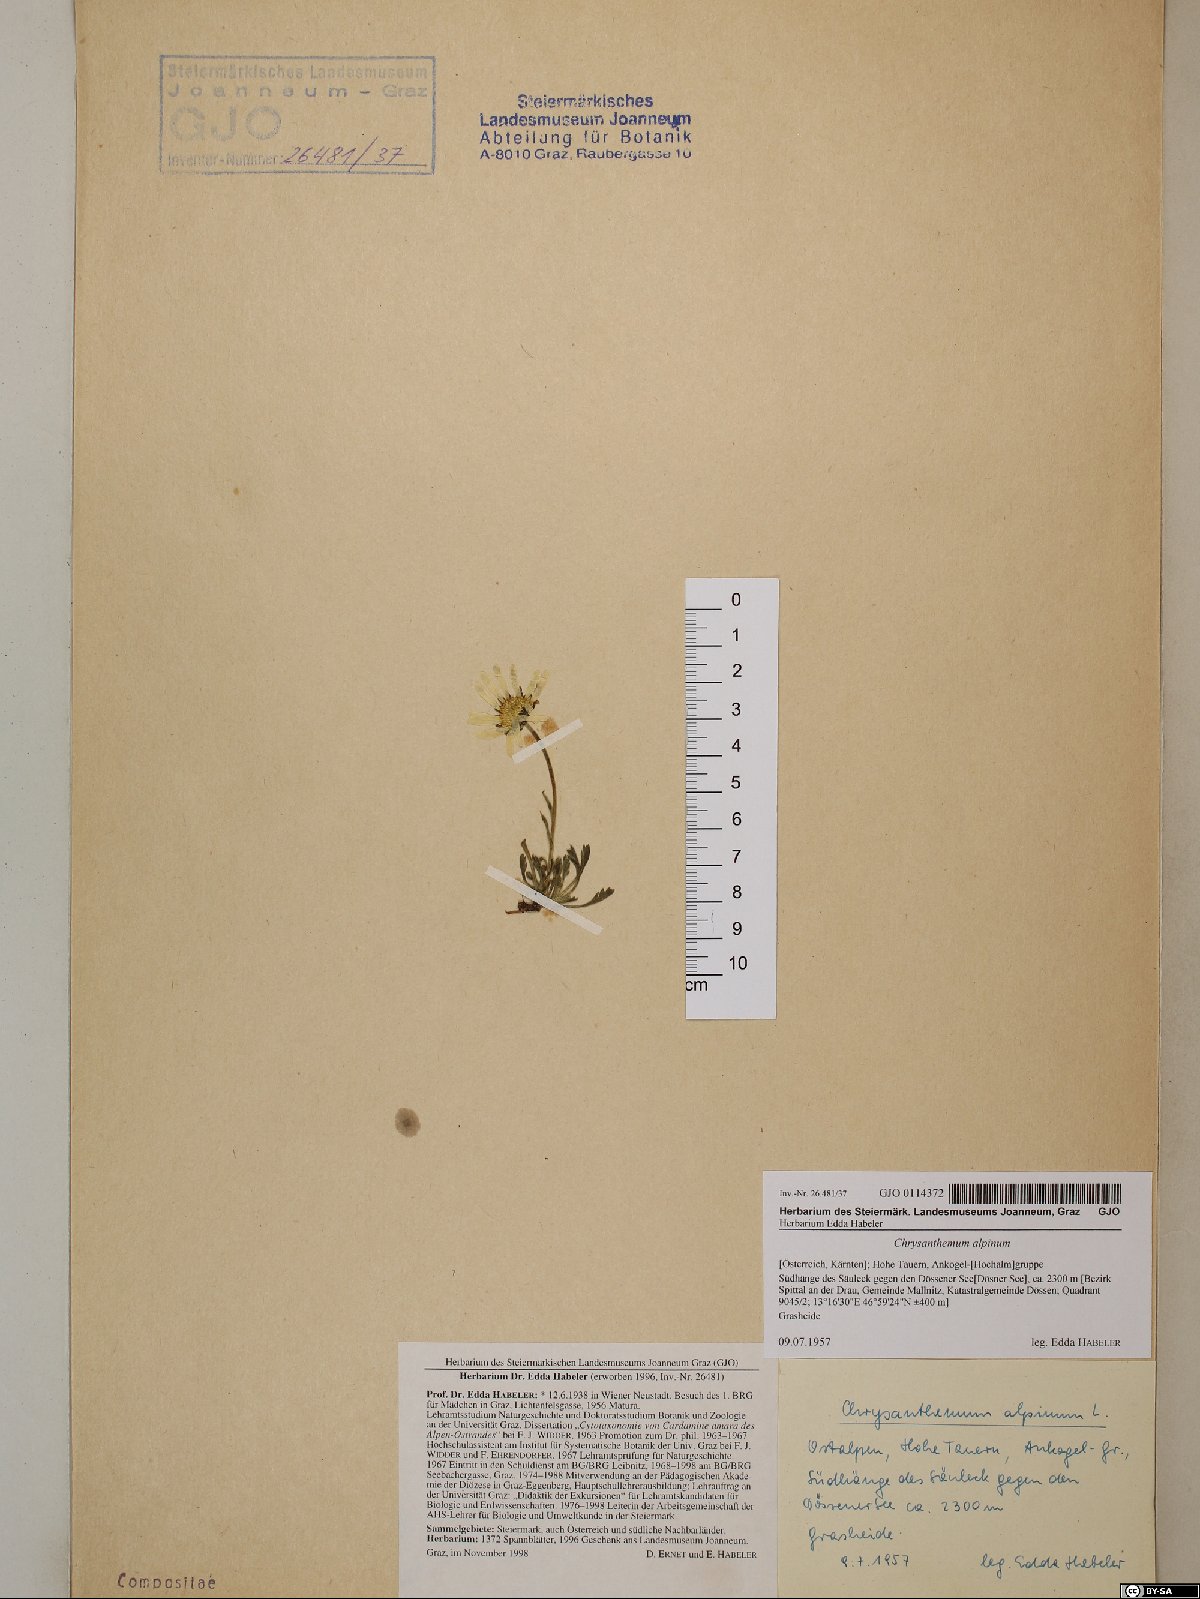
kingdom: Plantae
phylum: Tracheophyta
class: Magnoliopsida
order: Asterales
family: Asteraceae
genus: Leucanthemopsis
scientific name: Leucanthemopsis alpina
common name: Alpine moon daisy
